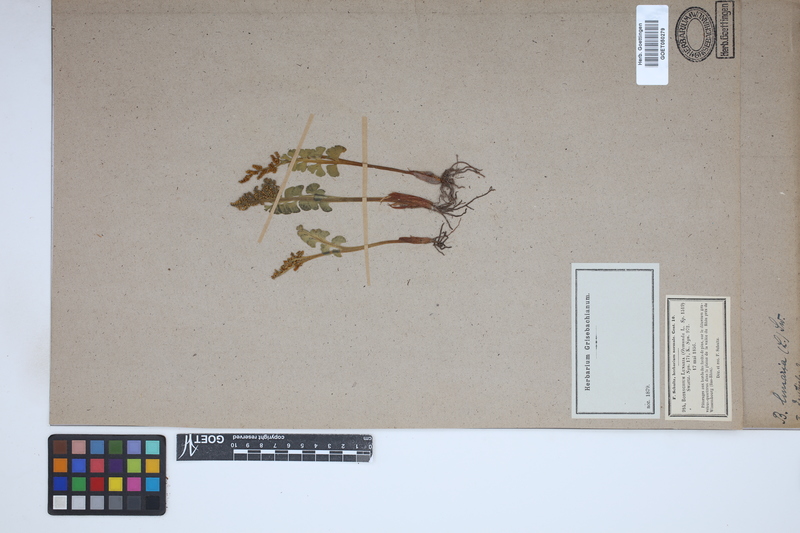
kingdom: Plantae
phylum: Tracheophyta
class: Polypodiopsida
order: Ophioglossales
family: Ophioglossaceae
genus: Botrychium
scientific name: Botrychium lunaria
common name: Moonwort
